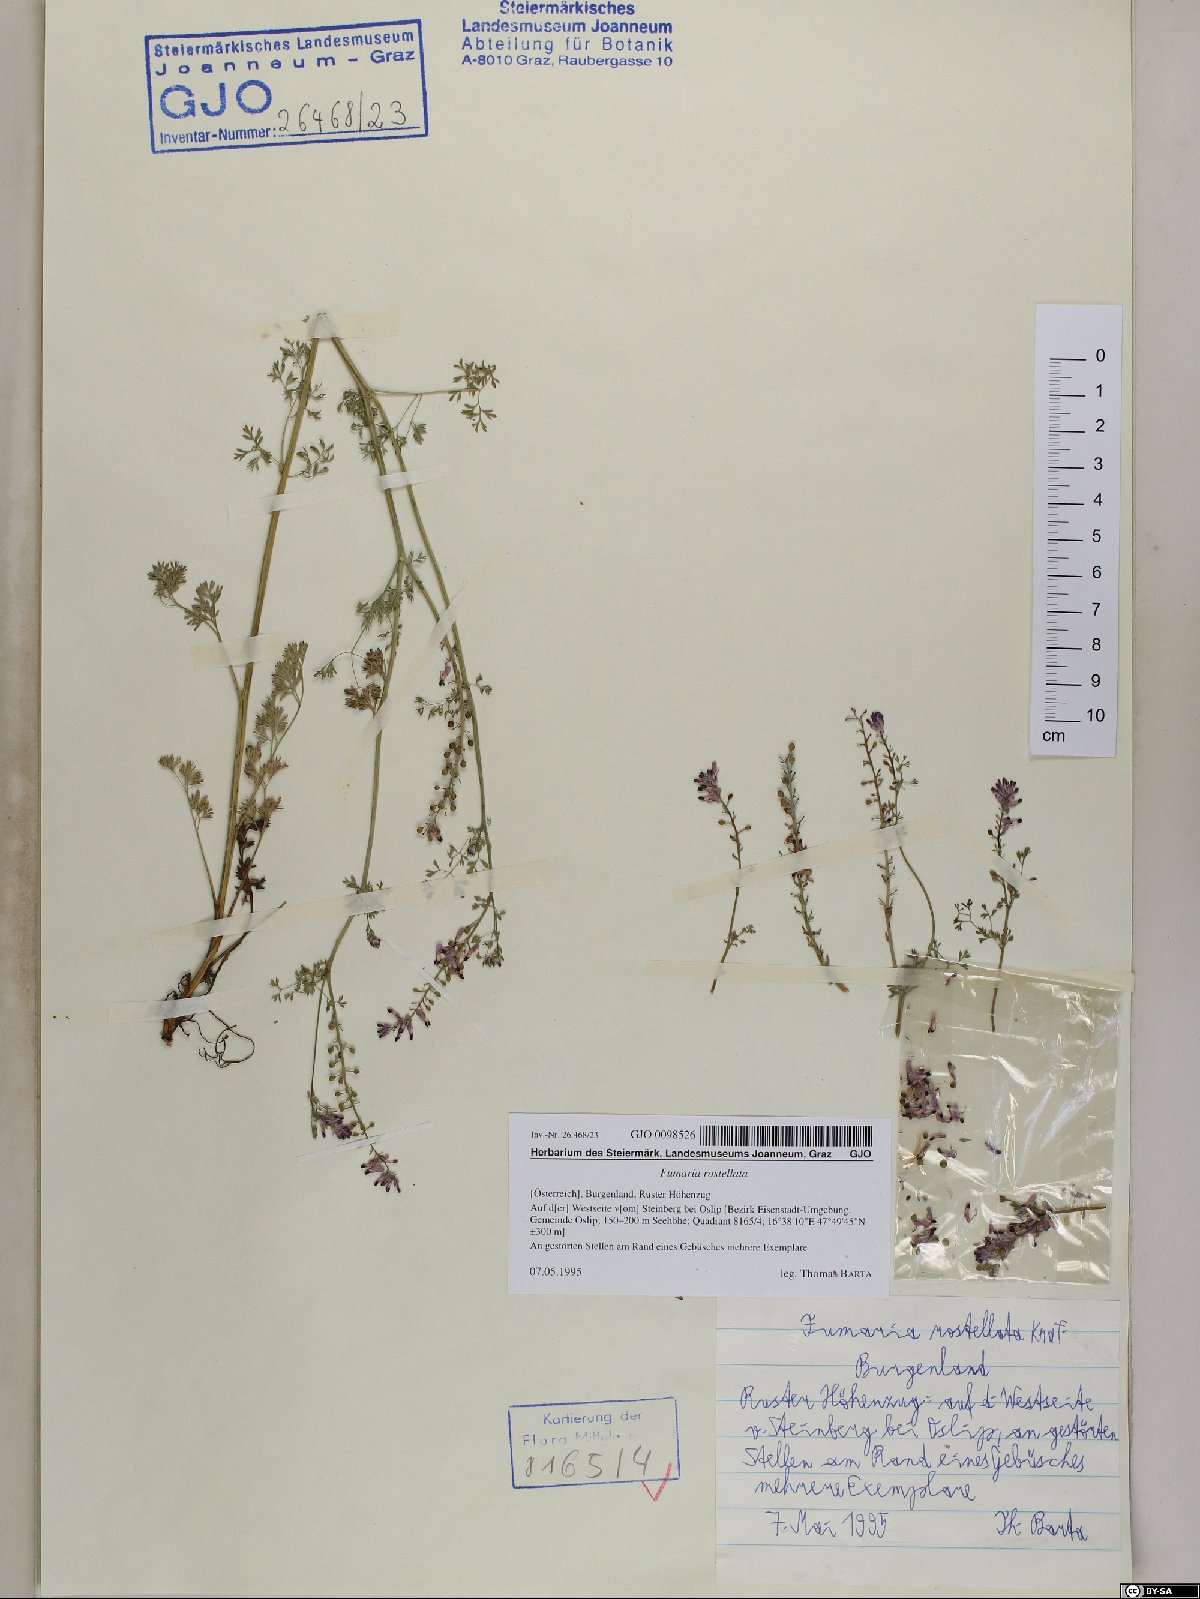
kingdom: Plantae
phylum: Tracheophyta
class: Magnoliopsida
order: Ranunculales
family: Papaveraceae
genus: Fumaria
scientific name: Fumaria rostellata
